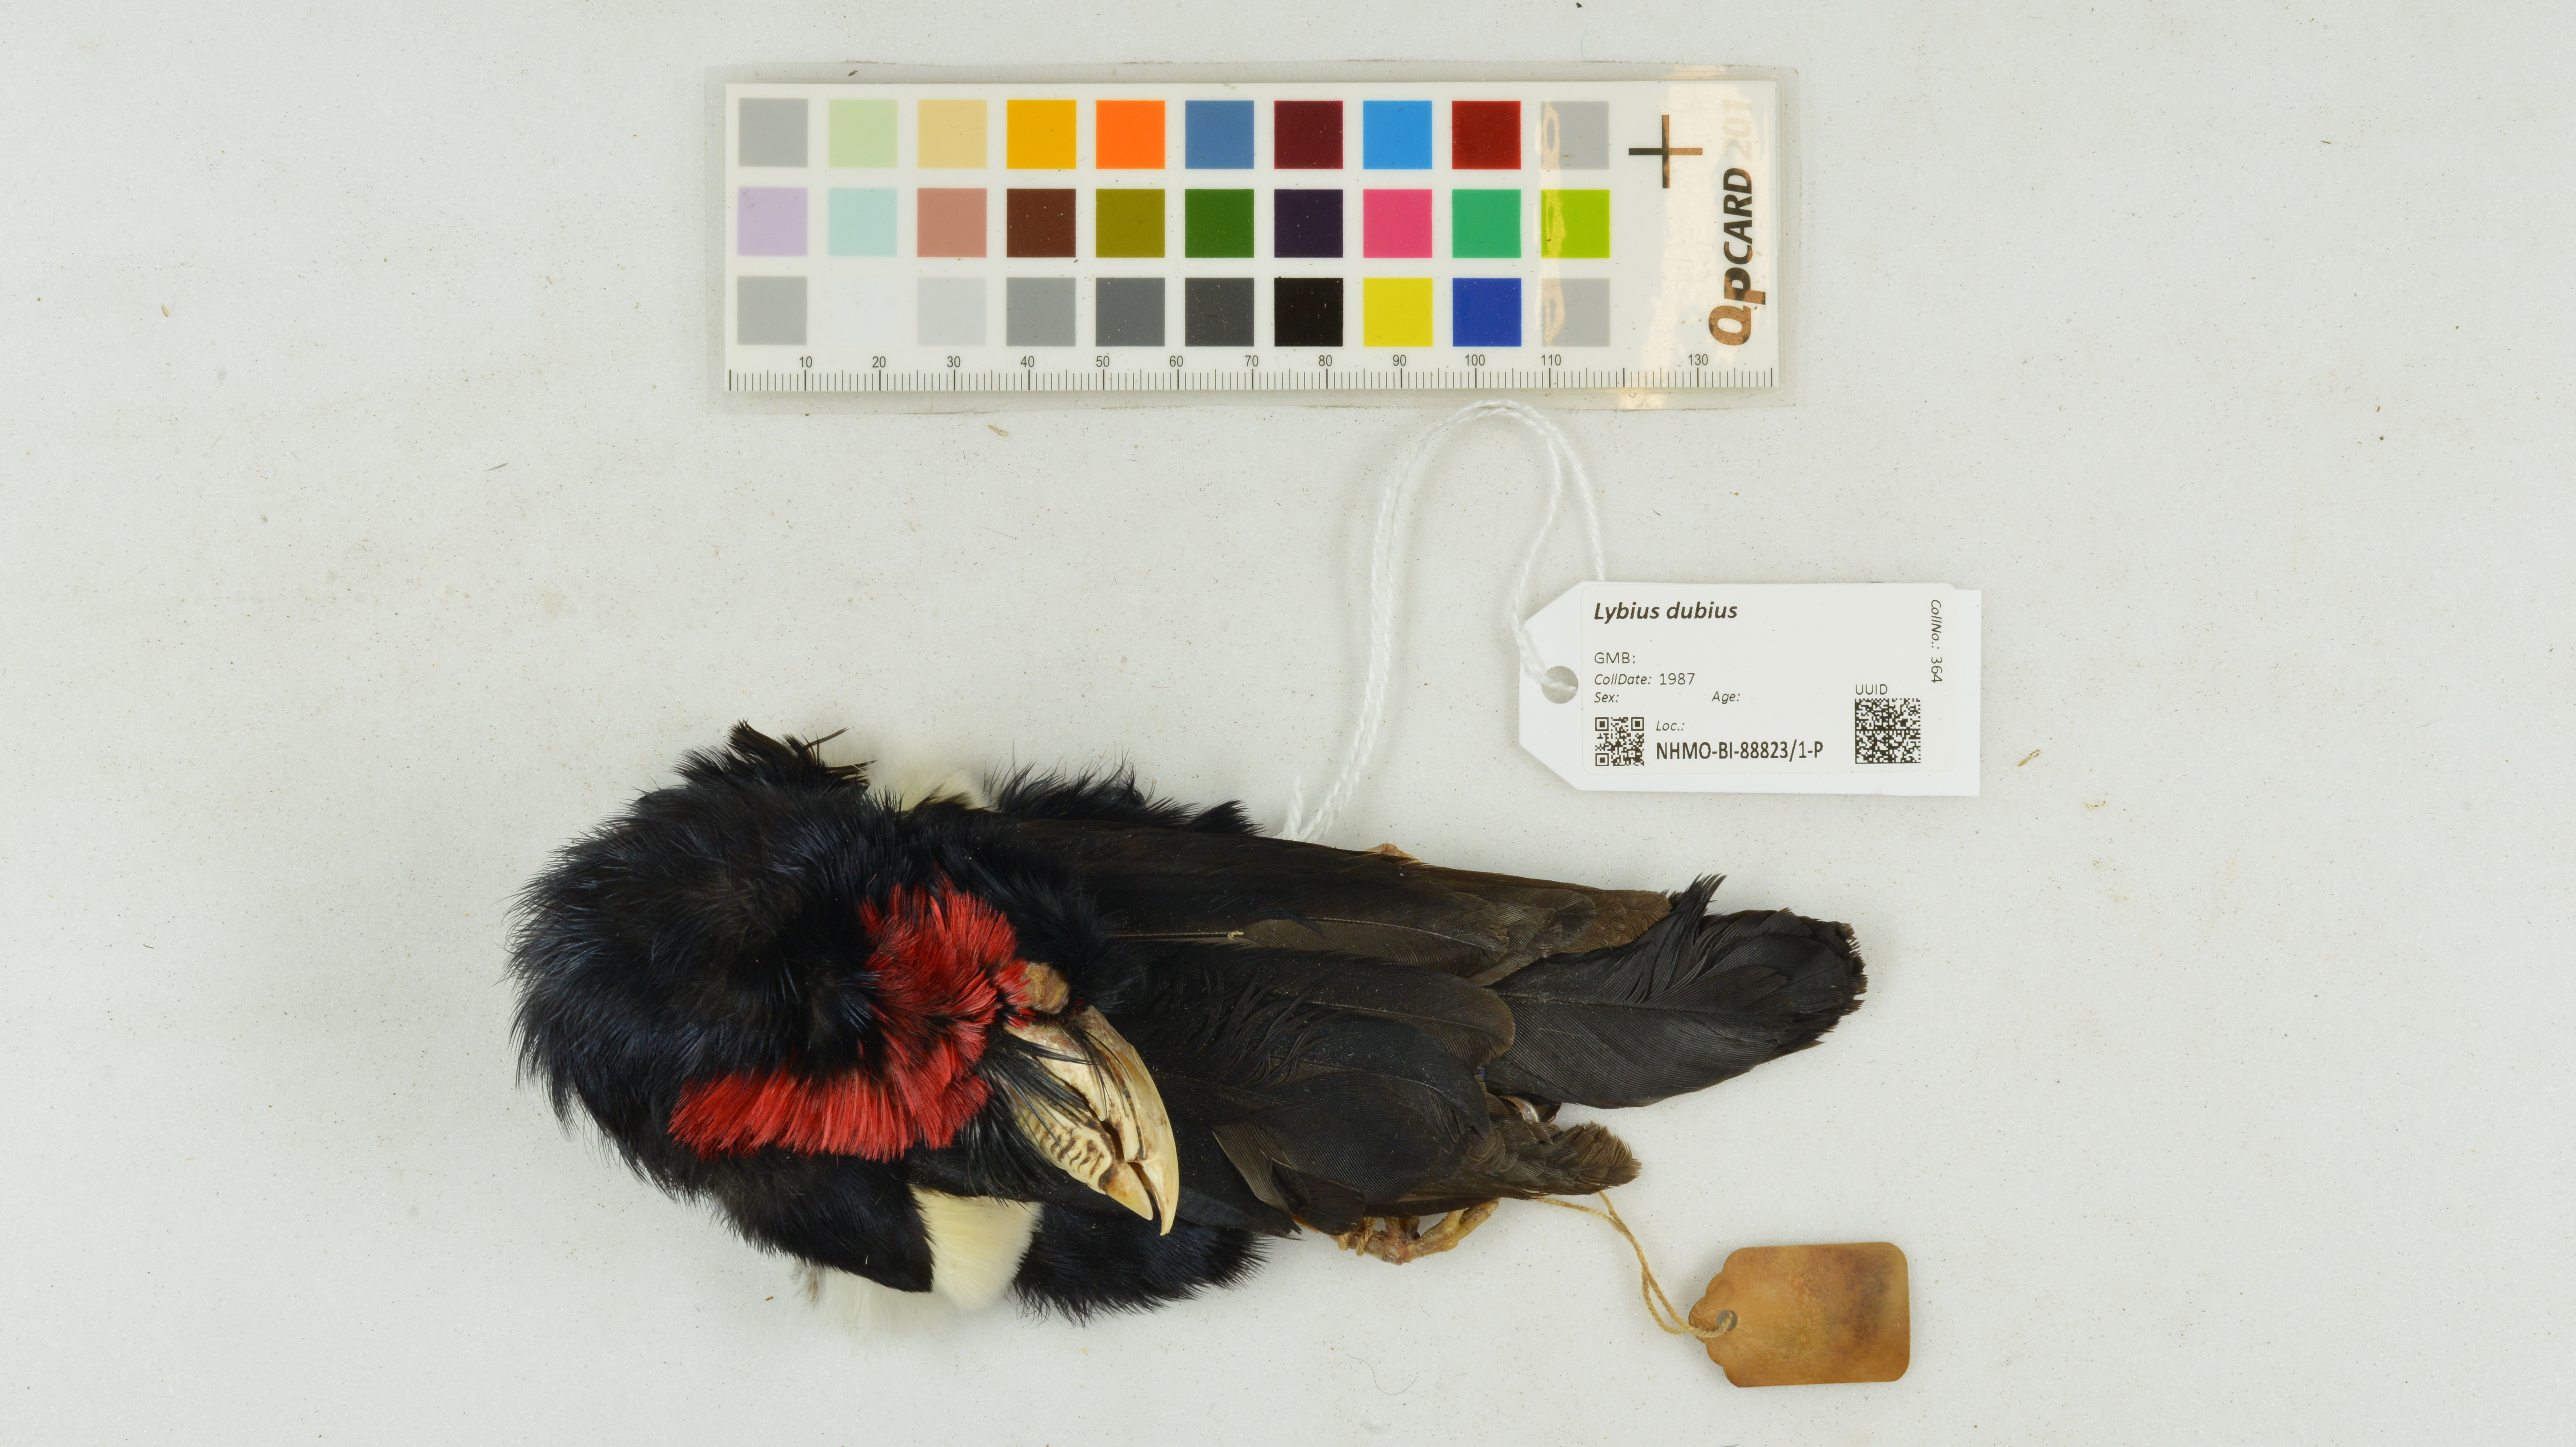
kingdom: Animalia
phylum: Chordata
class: Aves
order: Piciformes
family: Lybiidae
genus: Lybius
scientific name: Lybius dubius
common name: Bearded barbet
